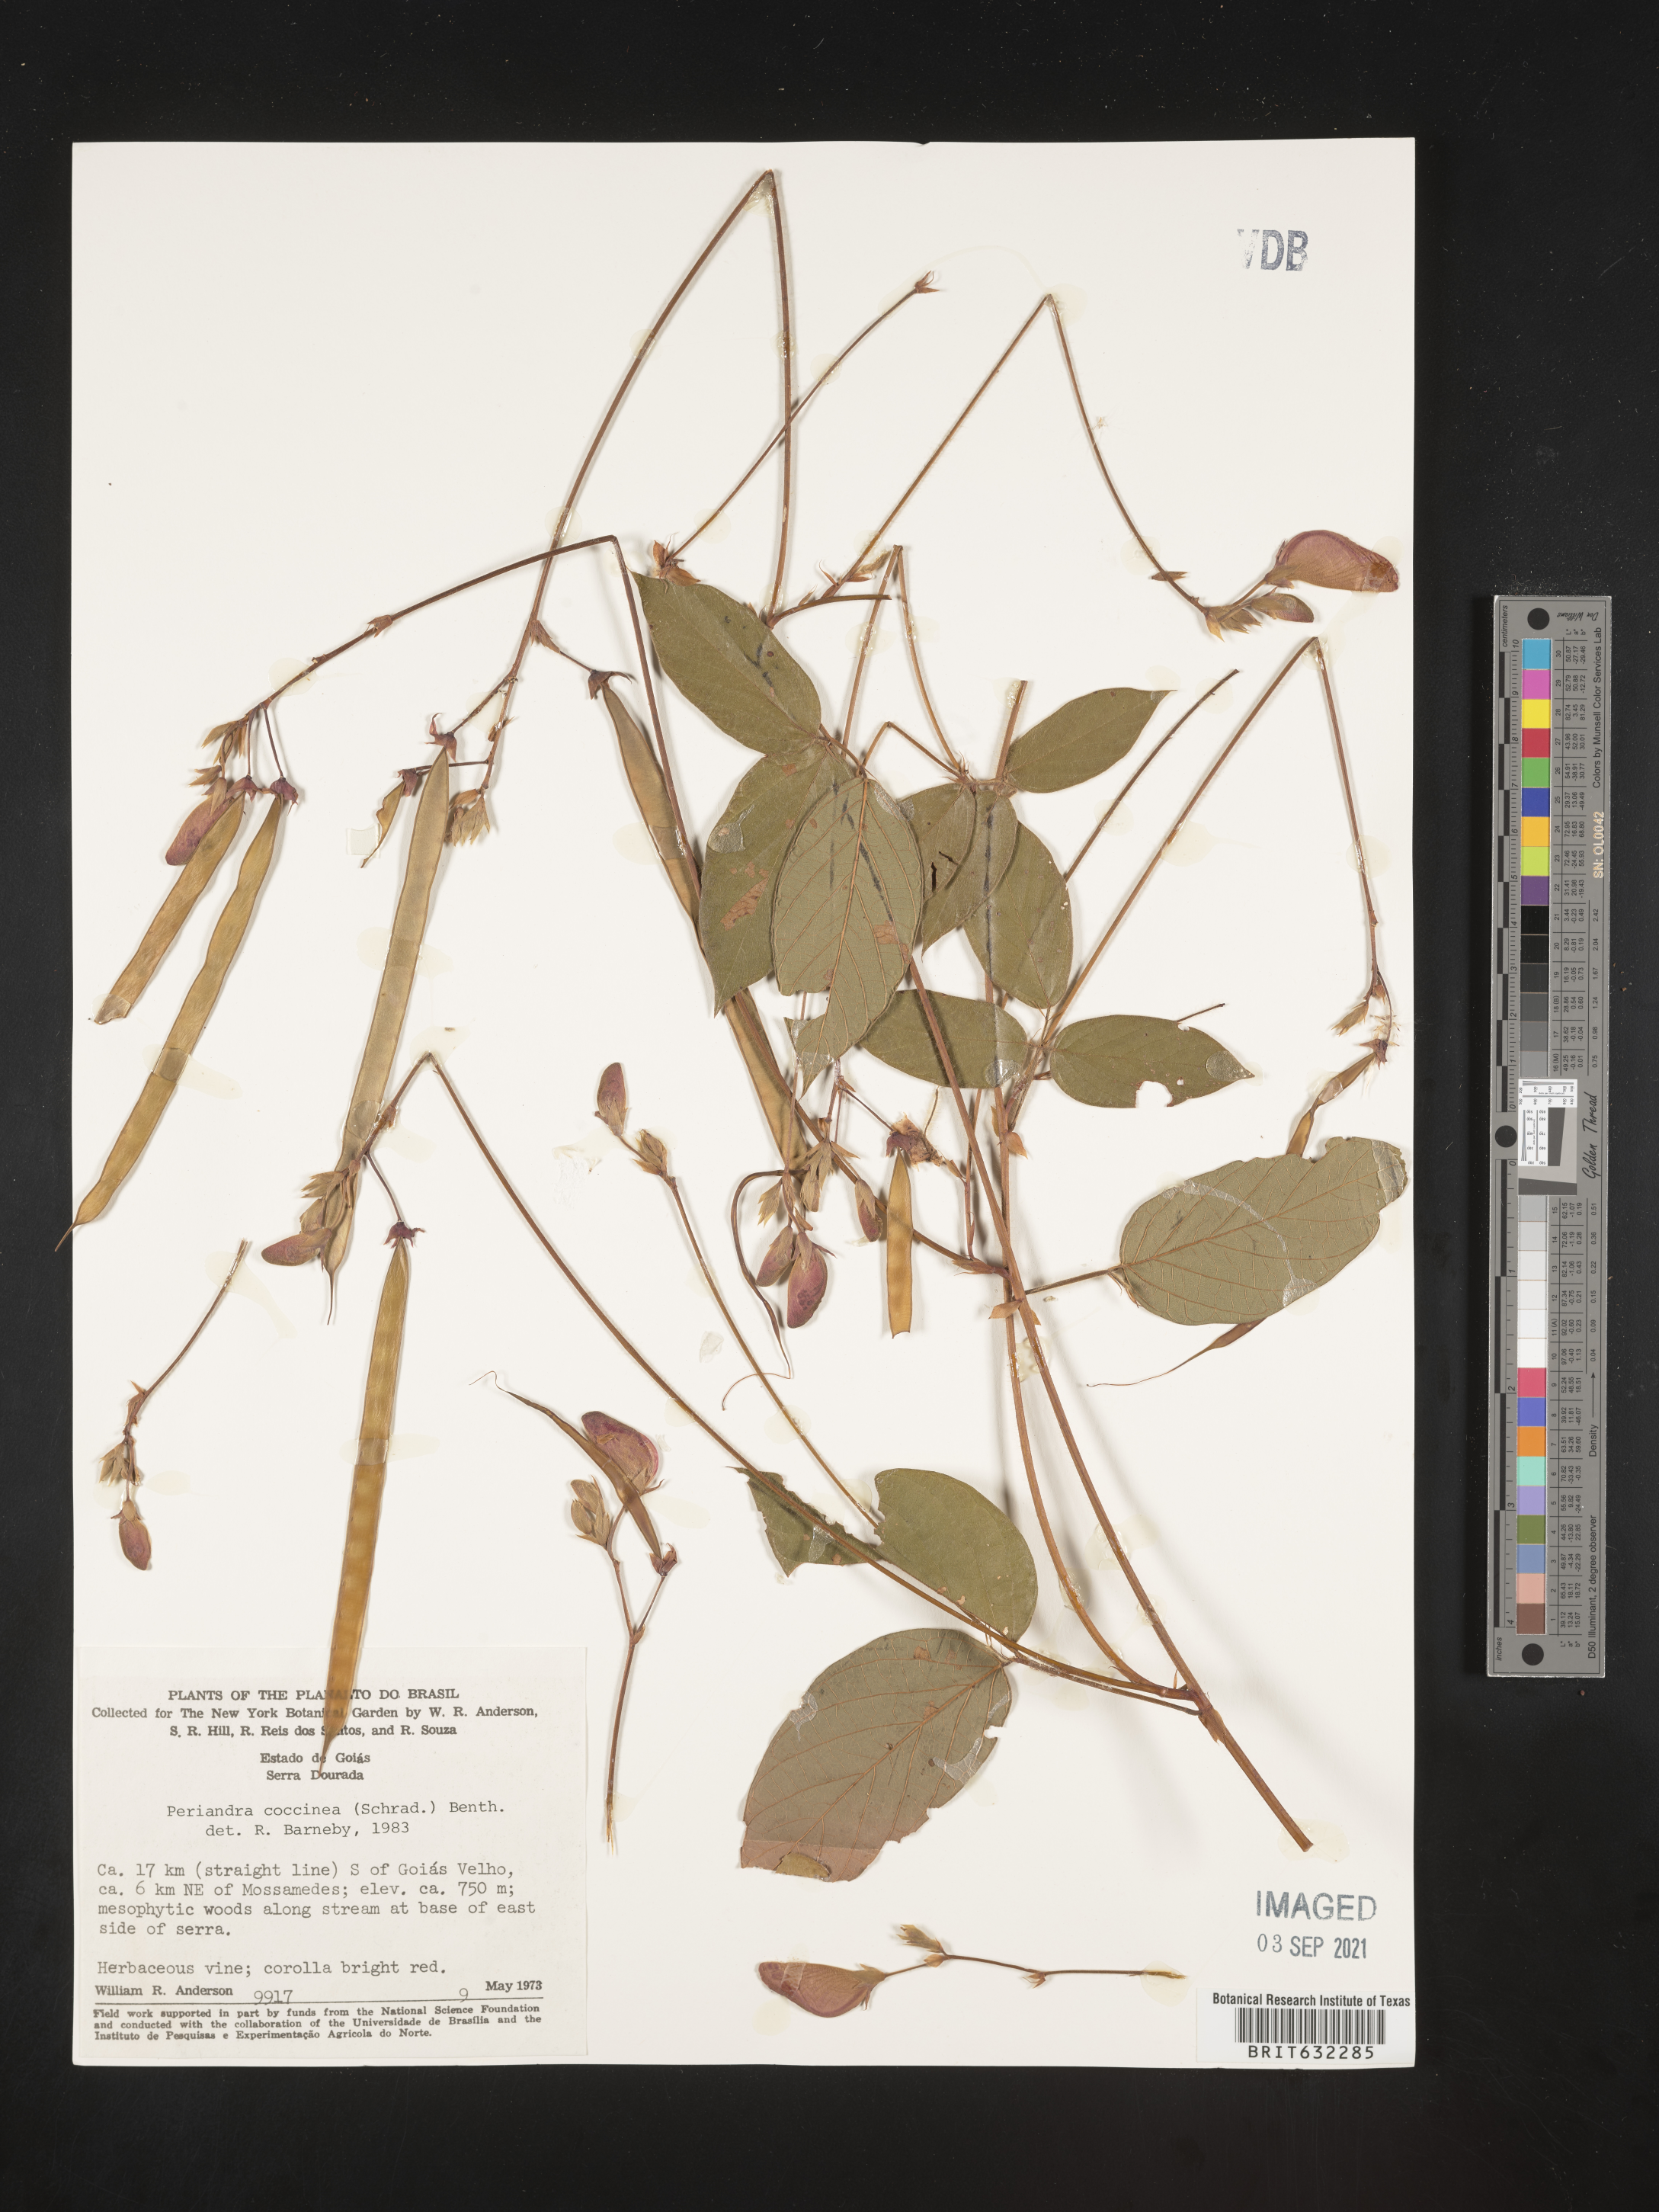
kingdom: Plantae
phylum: Tracheophyta
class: Magnoliopsida
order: Fabales
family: Fabaceae
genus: Periandra
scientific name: Periandra
